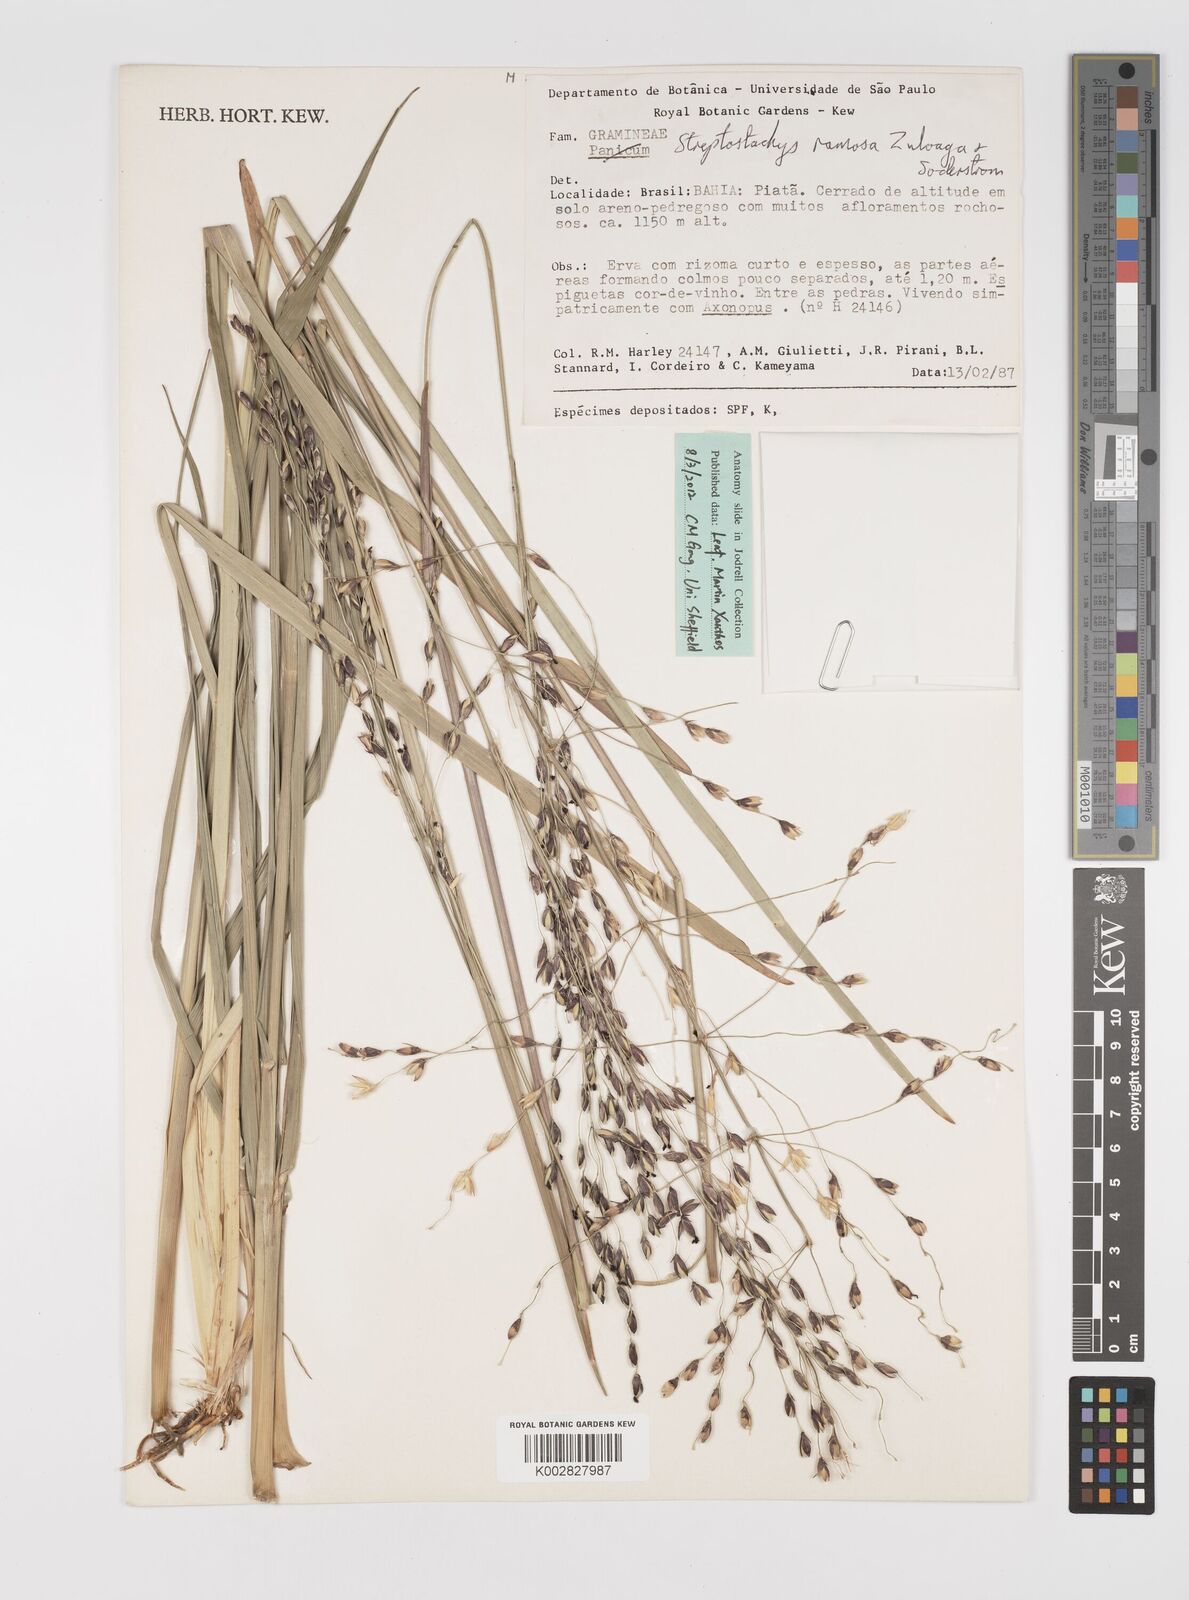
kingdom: Plantae
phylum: Tracheophyta
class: Liliopsida
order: Poales
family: Poaceae
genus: Oncorachis
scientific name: Oncorachis ramosa
